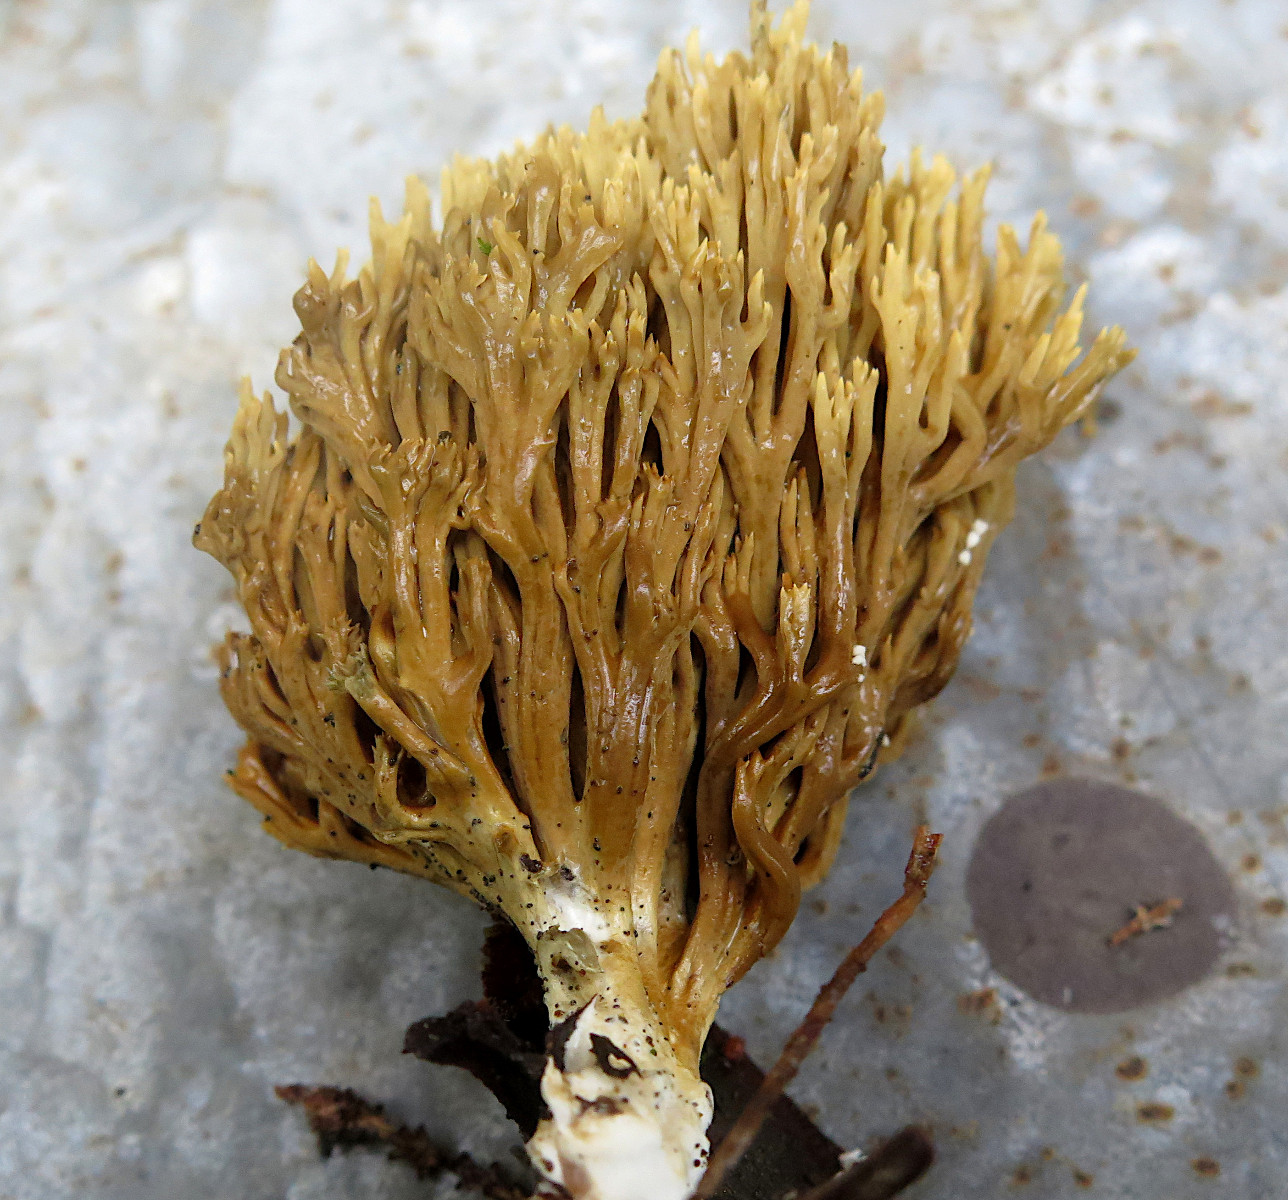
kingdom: Fungi
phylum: Basidiomycota
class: Agaricomycetes
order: Gomphales
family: Gomphaceae
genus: Phaeoclavulina
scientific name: Phaeoclavulina eumorpha
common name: gran-koralsvamp
